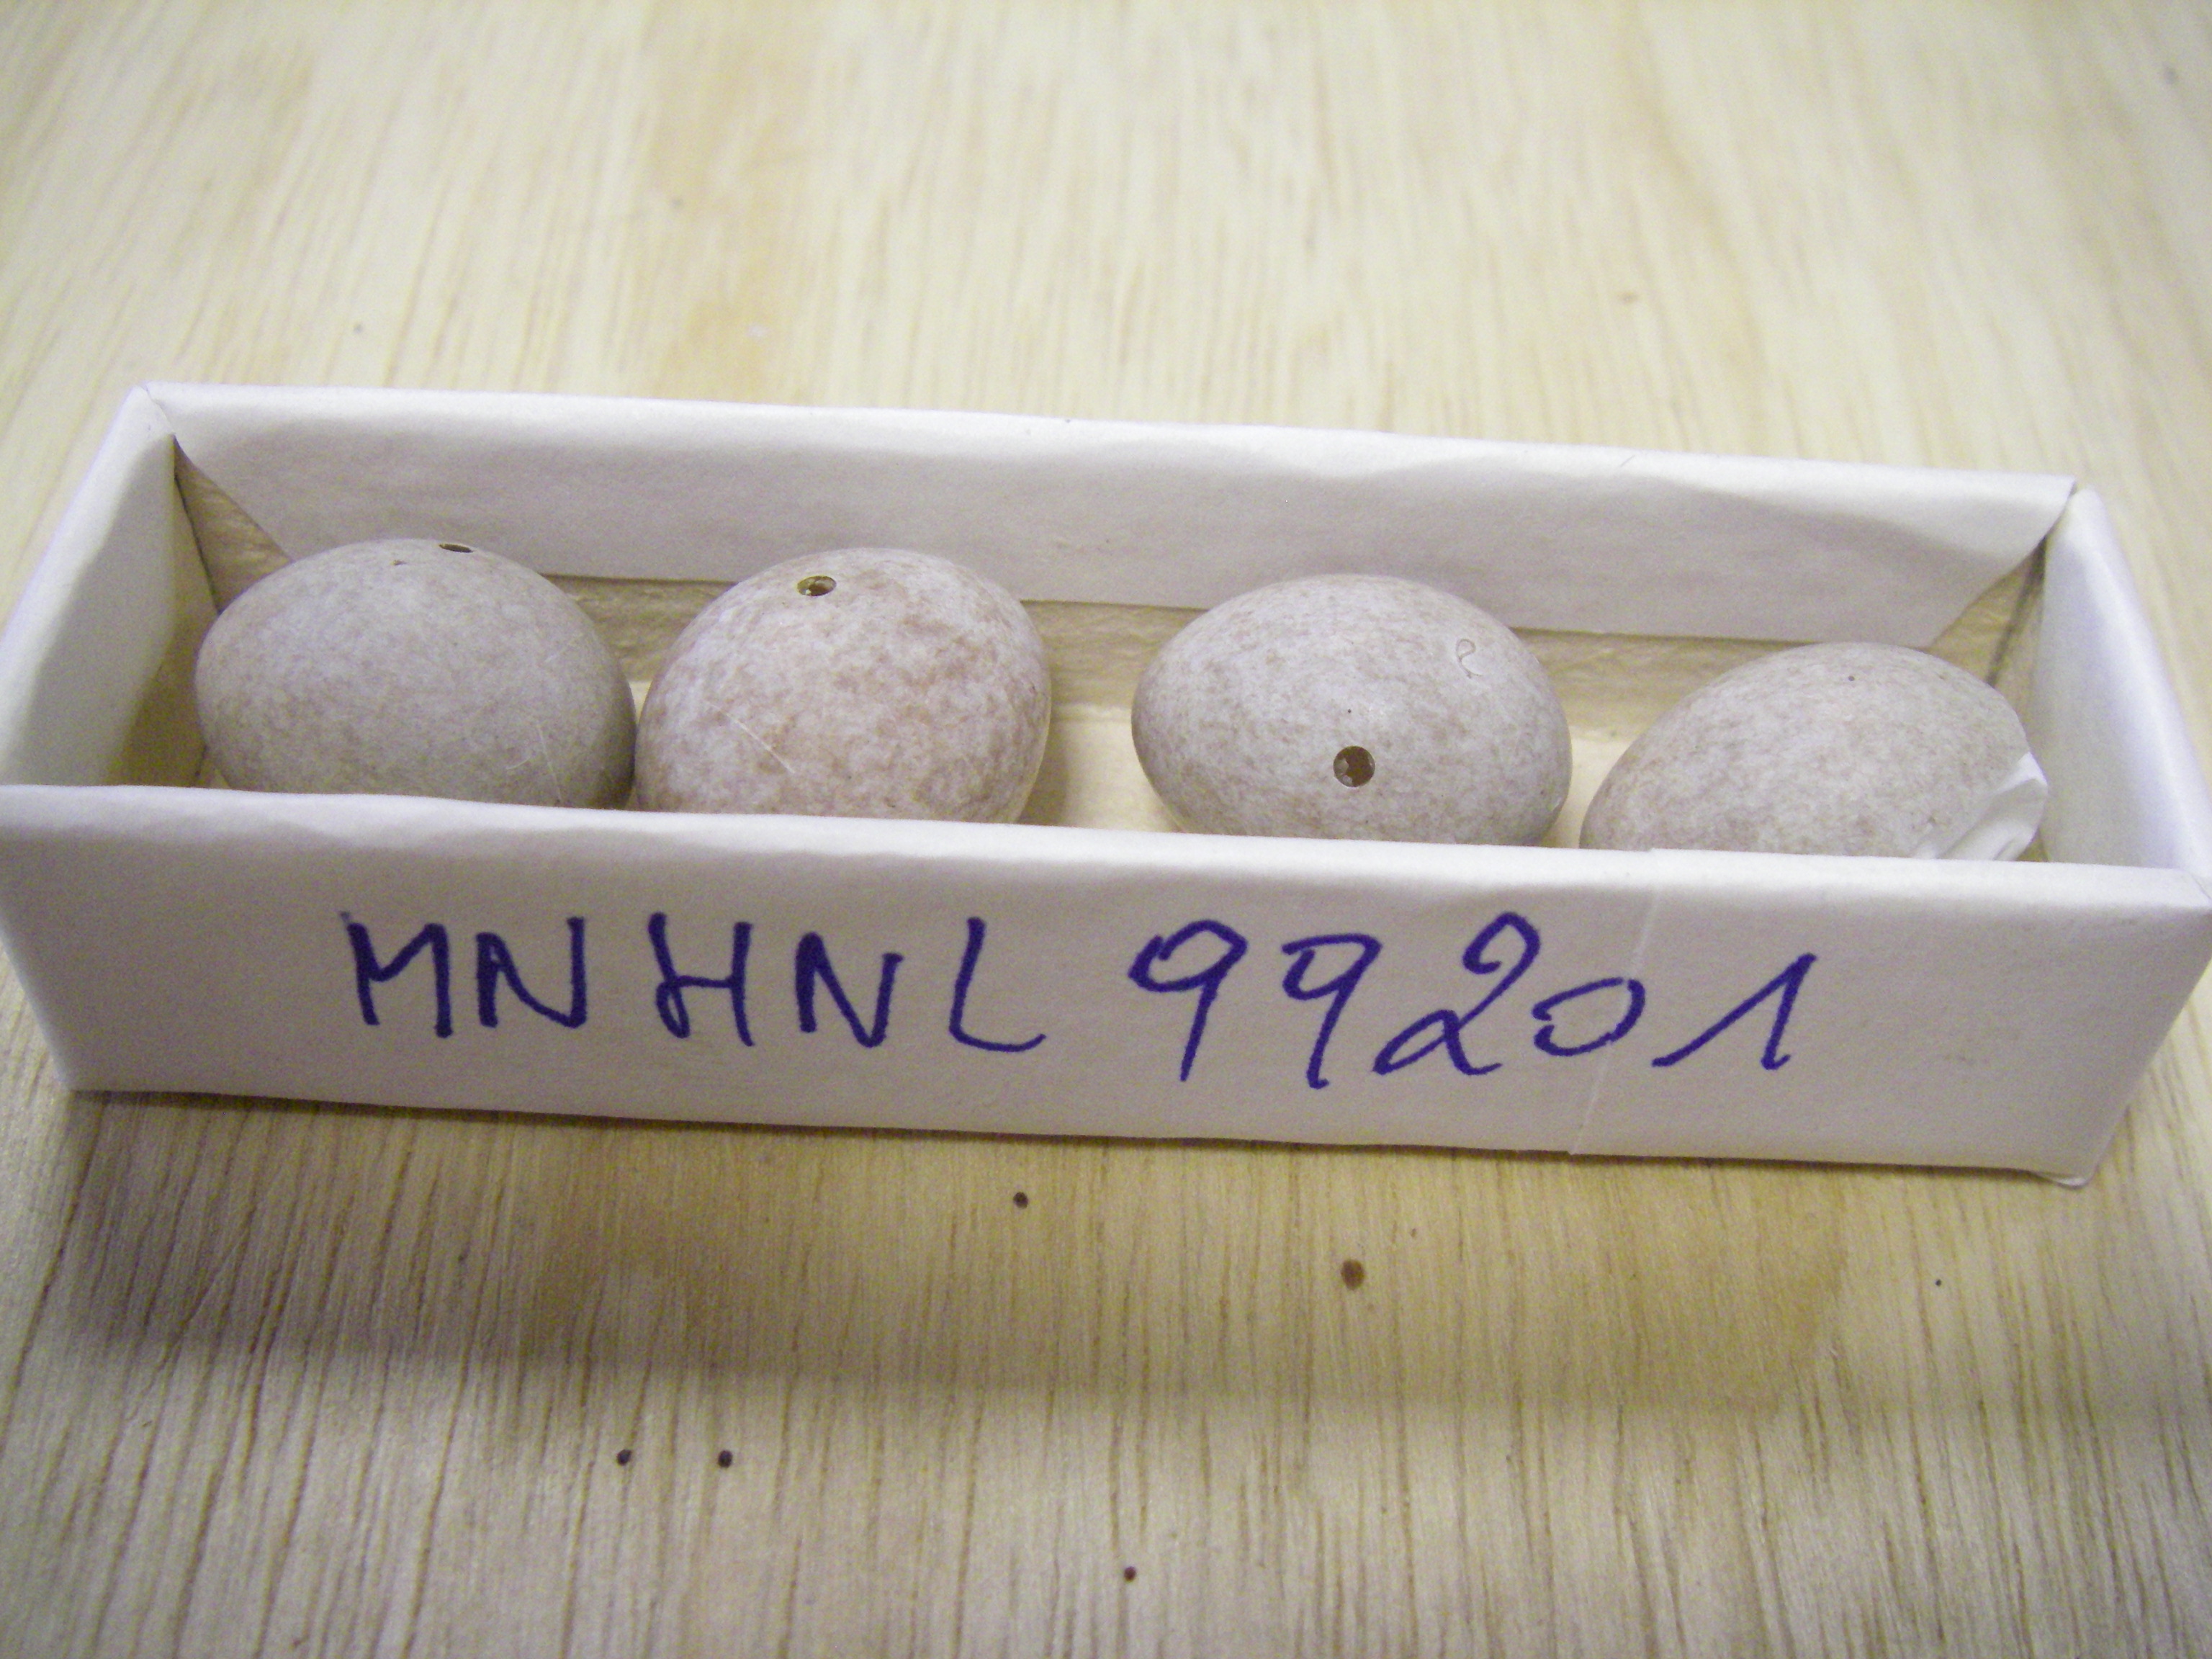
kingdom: Animalia
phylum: Chordata
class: Aves
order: Passeriformes
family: Motacillidae
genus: Motacilla
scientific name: Motacilla flava
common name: Western yellow wagtail
